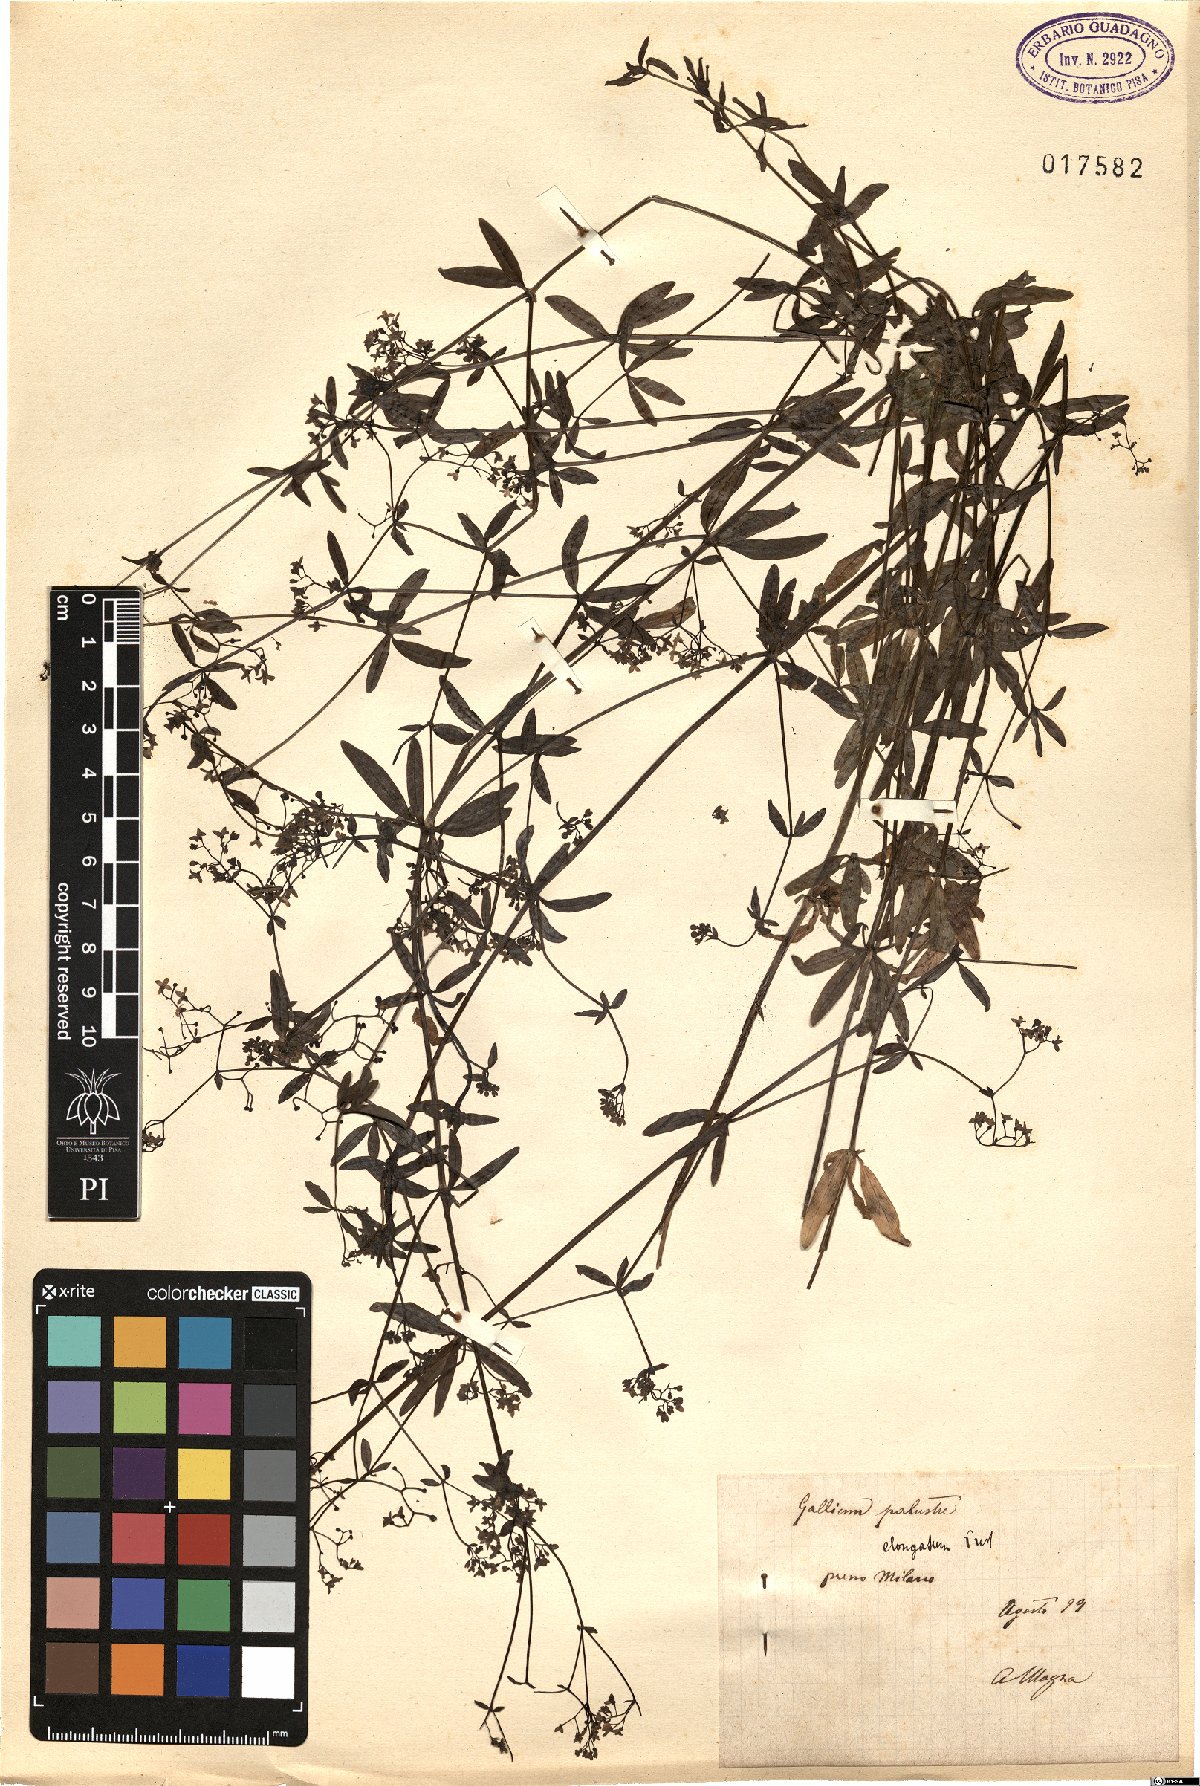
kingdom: Plantae
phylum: Tracheophyta
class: Magnoliopsida
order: Gentianales
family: Rubiaceae
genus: Galium
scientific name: Galium palustre
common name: Common marsh-bedstraw
